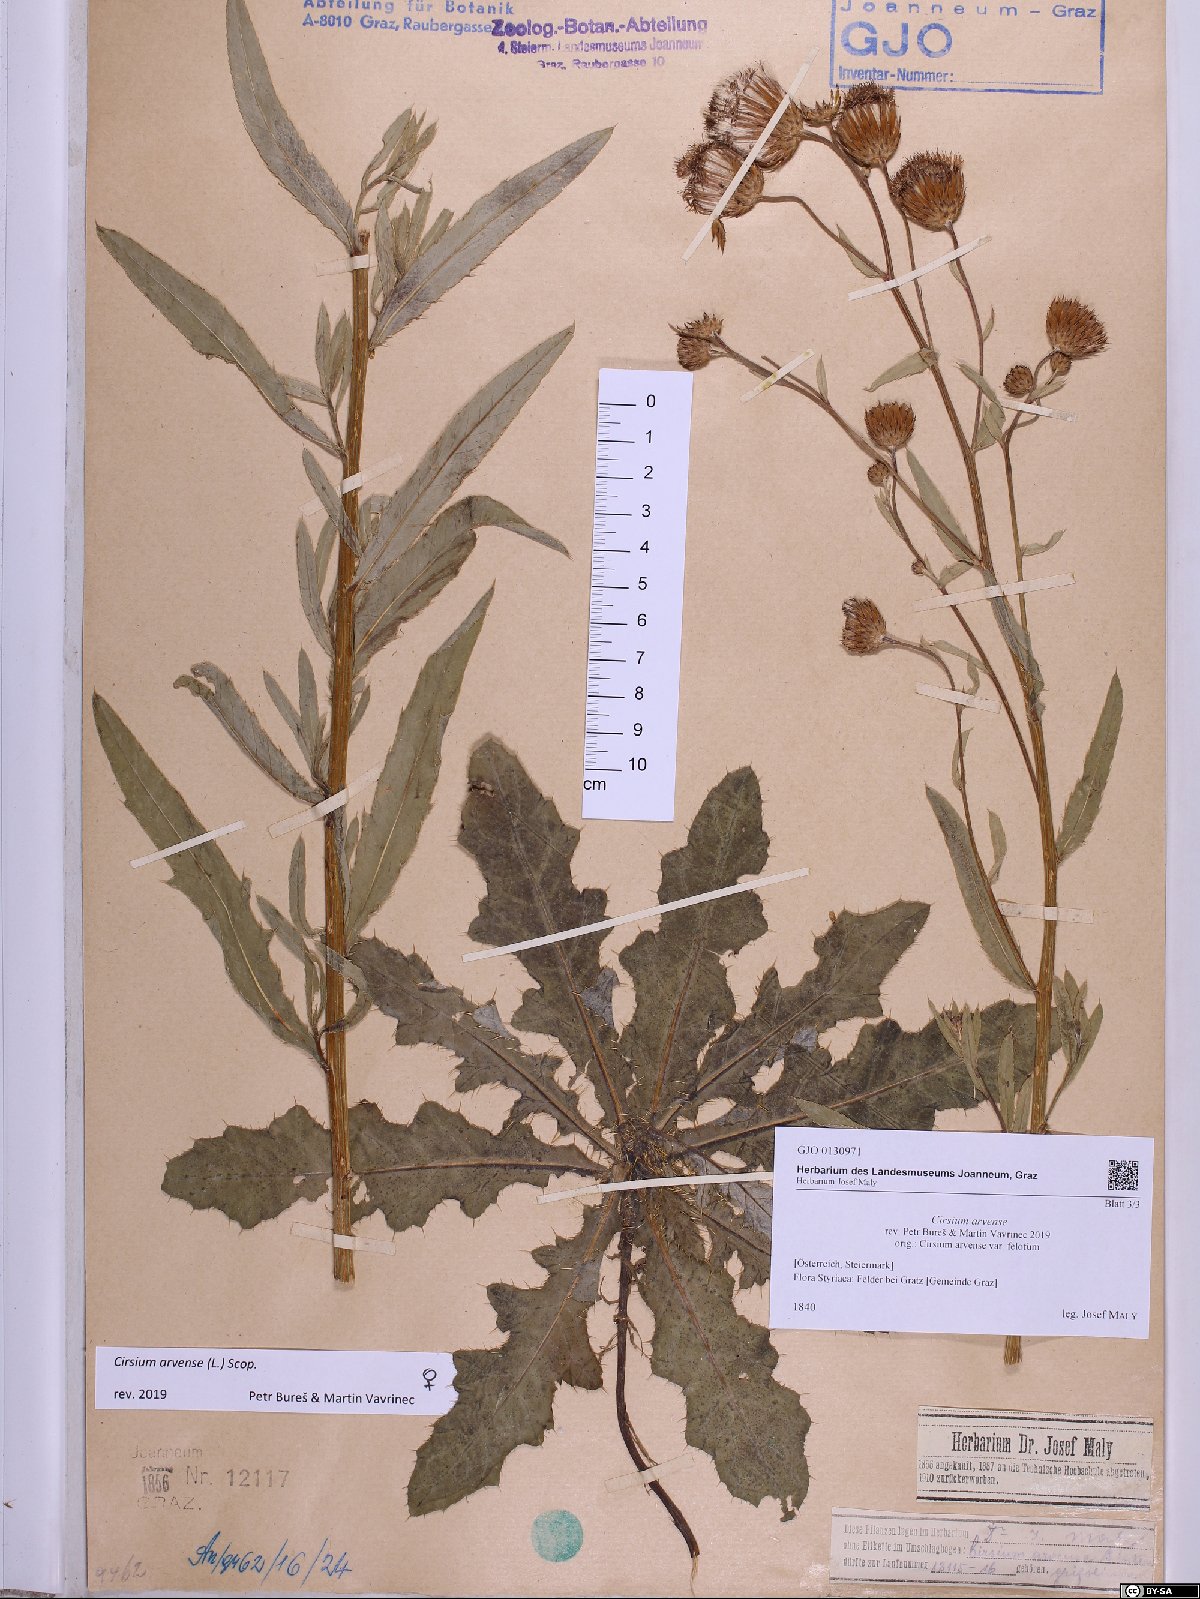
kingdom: Plantae
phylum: Tracheophyta
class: Magnoliopsida
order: Asterales
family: Asteraceae
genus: Cirsium
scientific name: Cirsium arvense
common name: Creeping thistle
